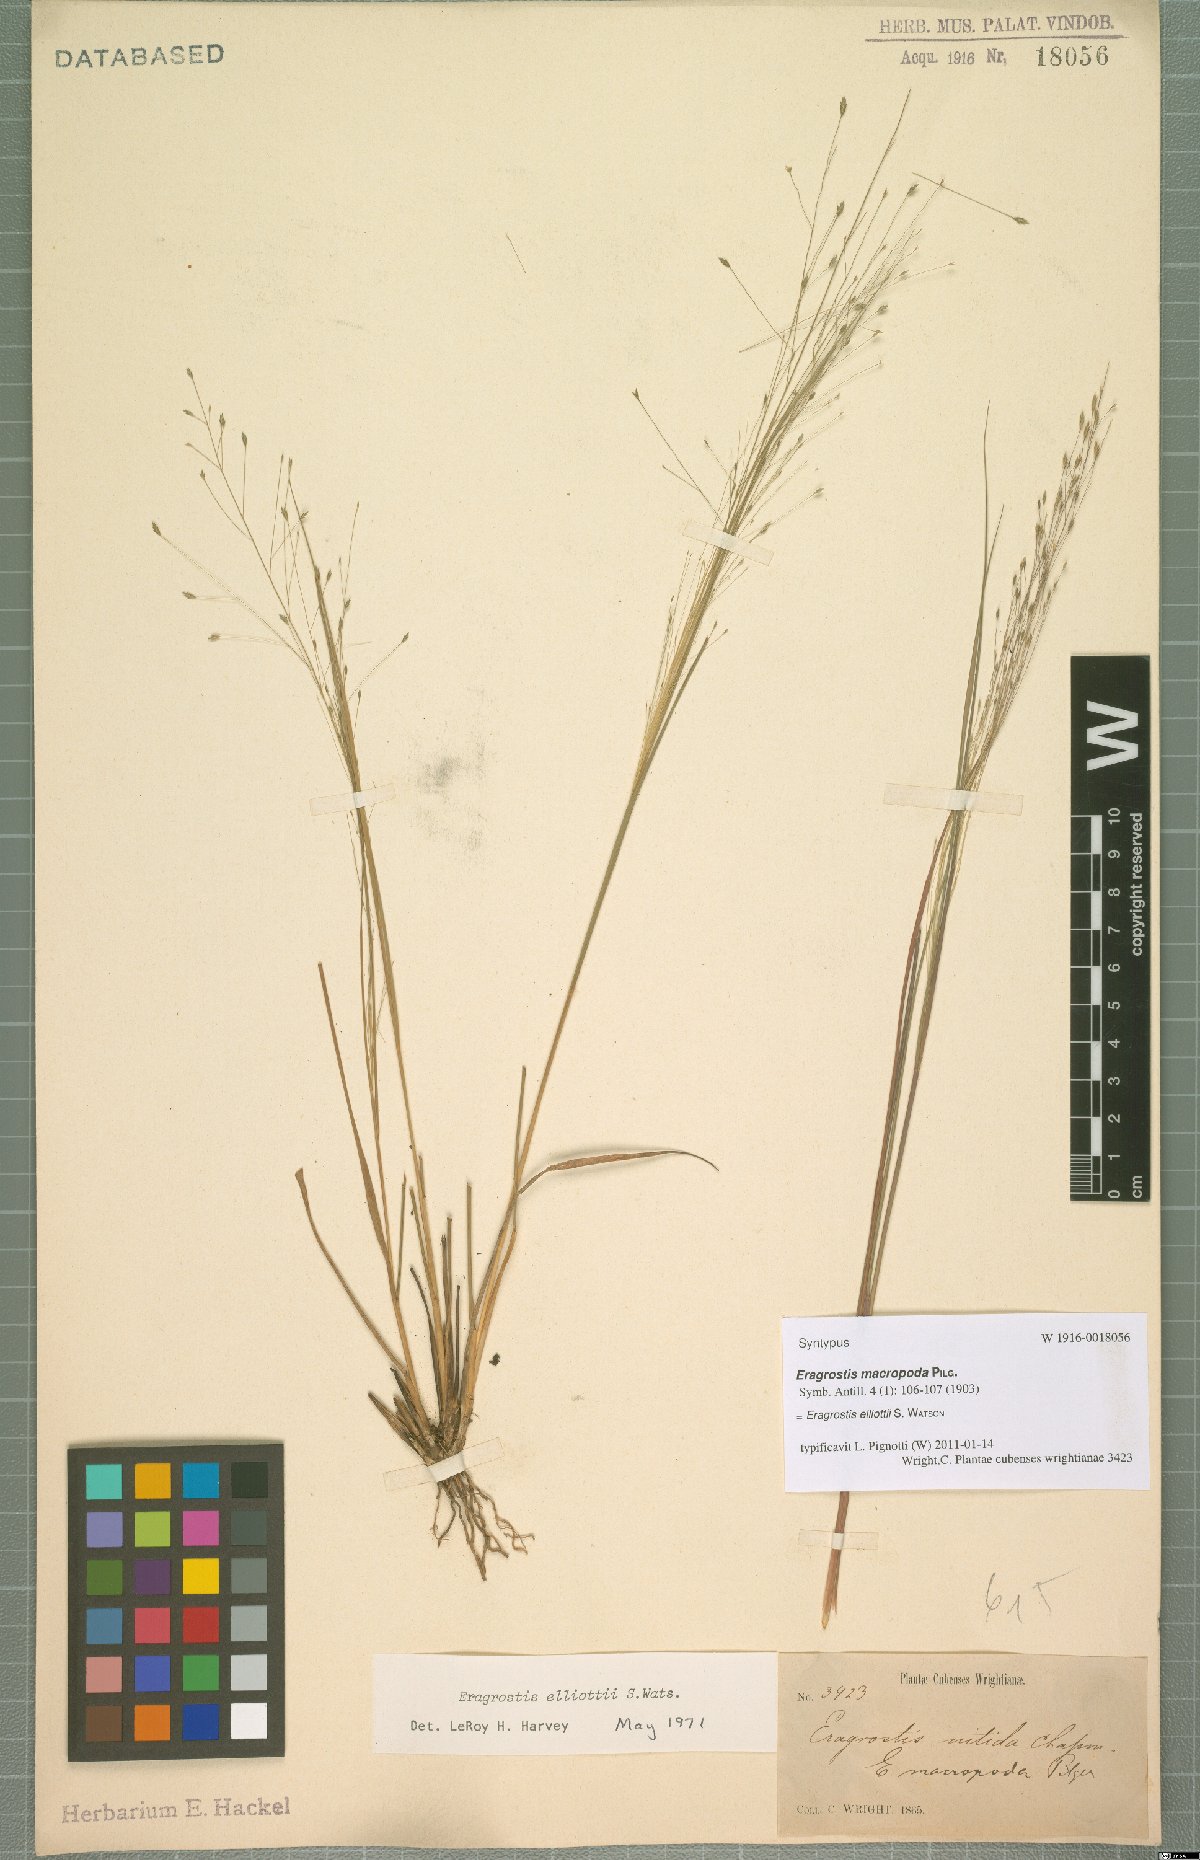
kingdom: Plantae
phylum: Tracheophyta
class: Liliopsida
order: Poales
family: Poaceae
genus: Eragrostis
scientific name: Eragrostis elliottii
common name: Elliott's love grass
